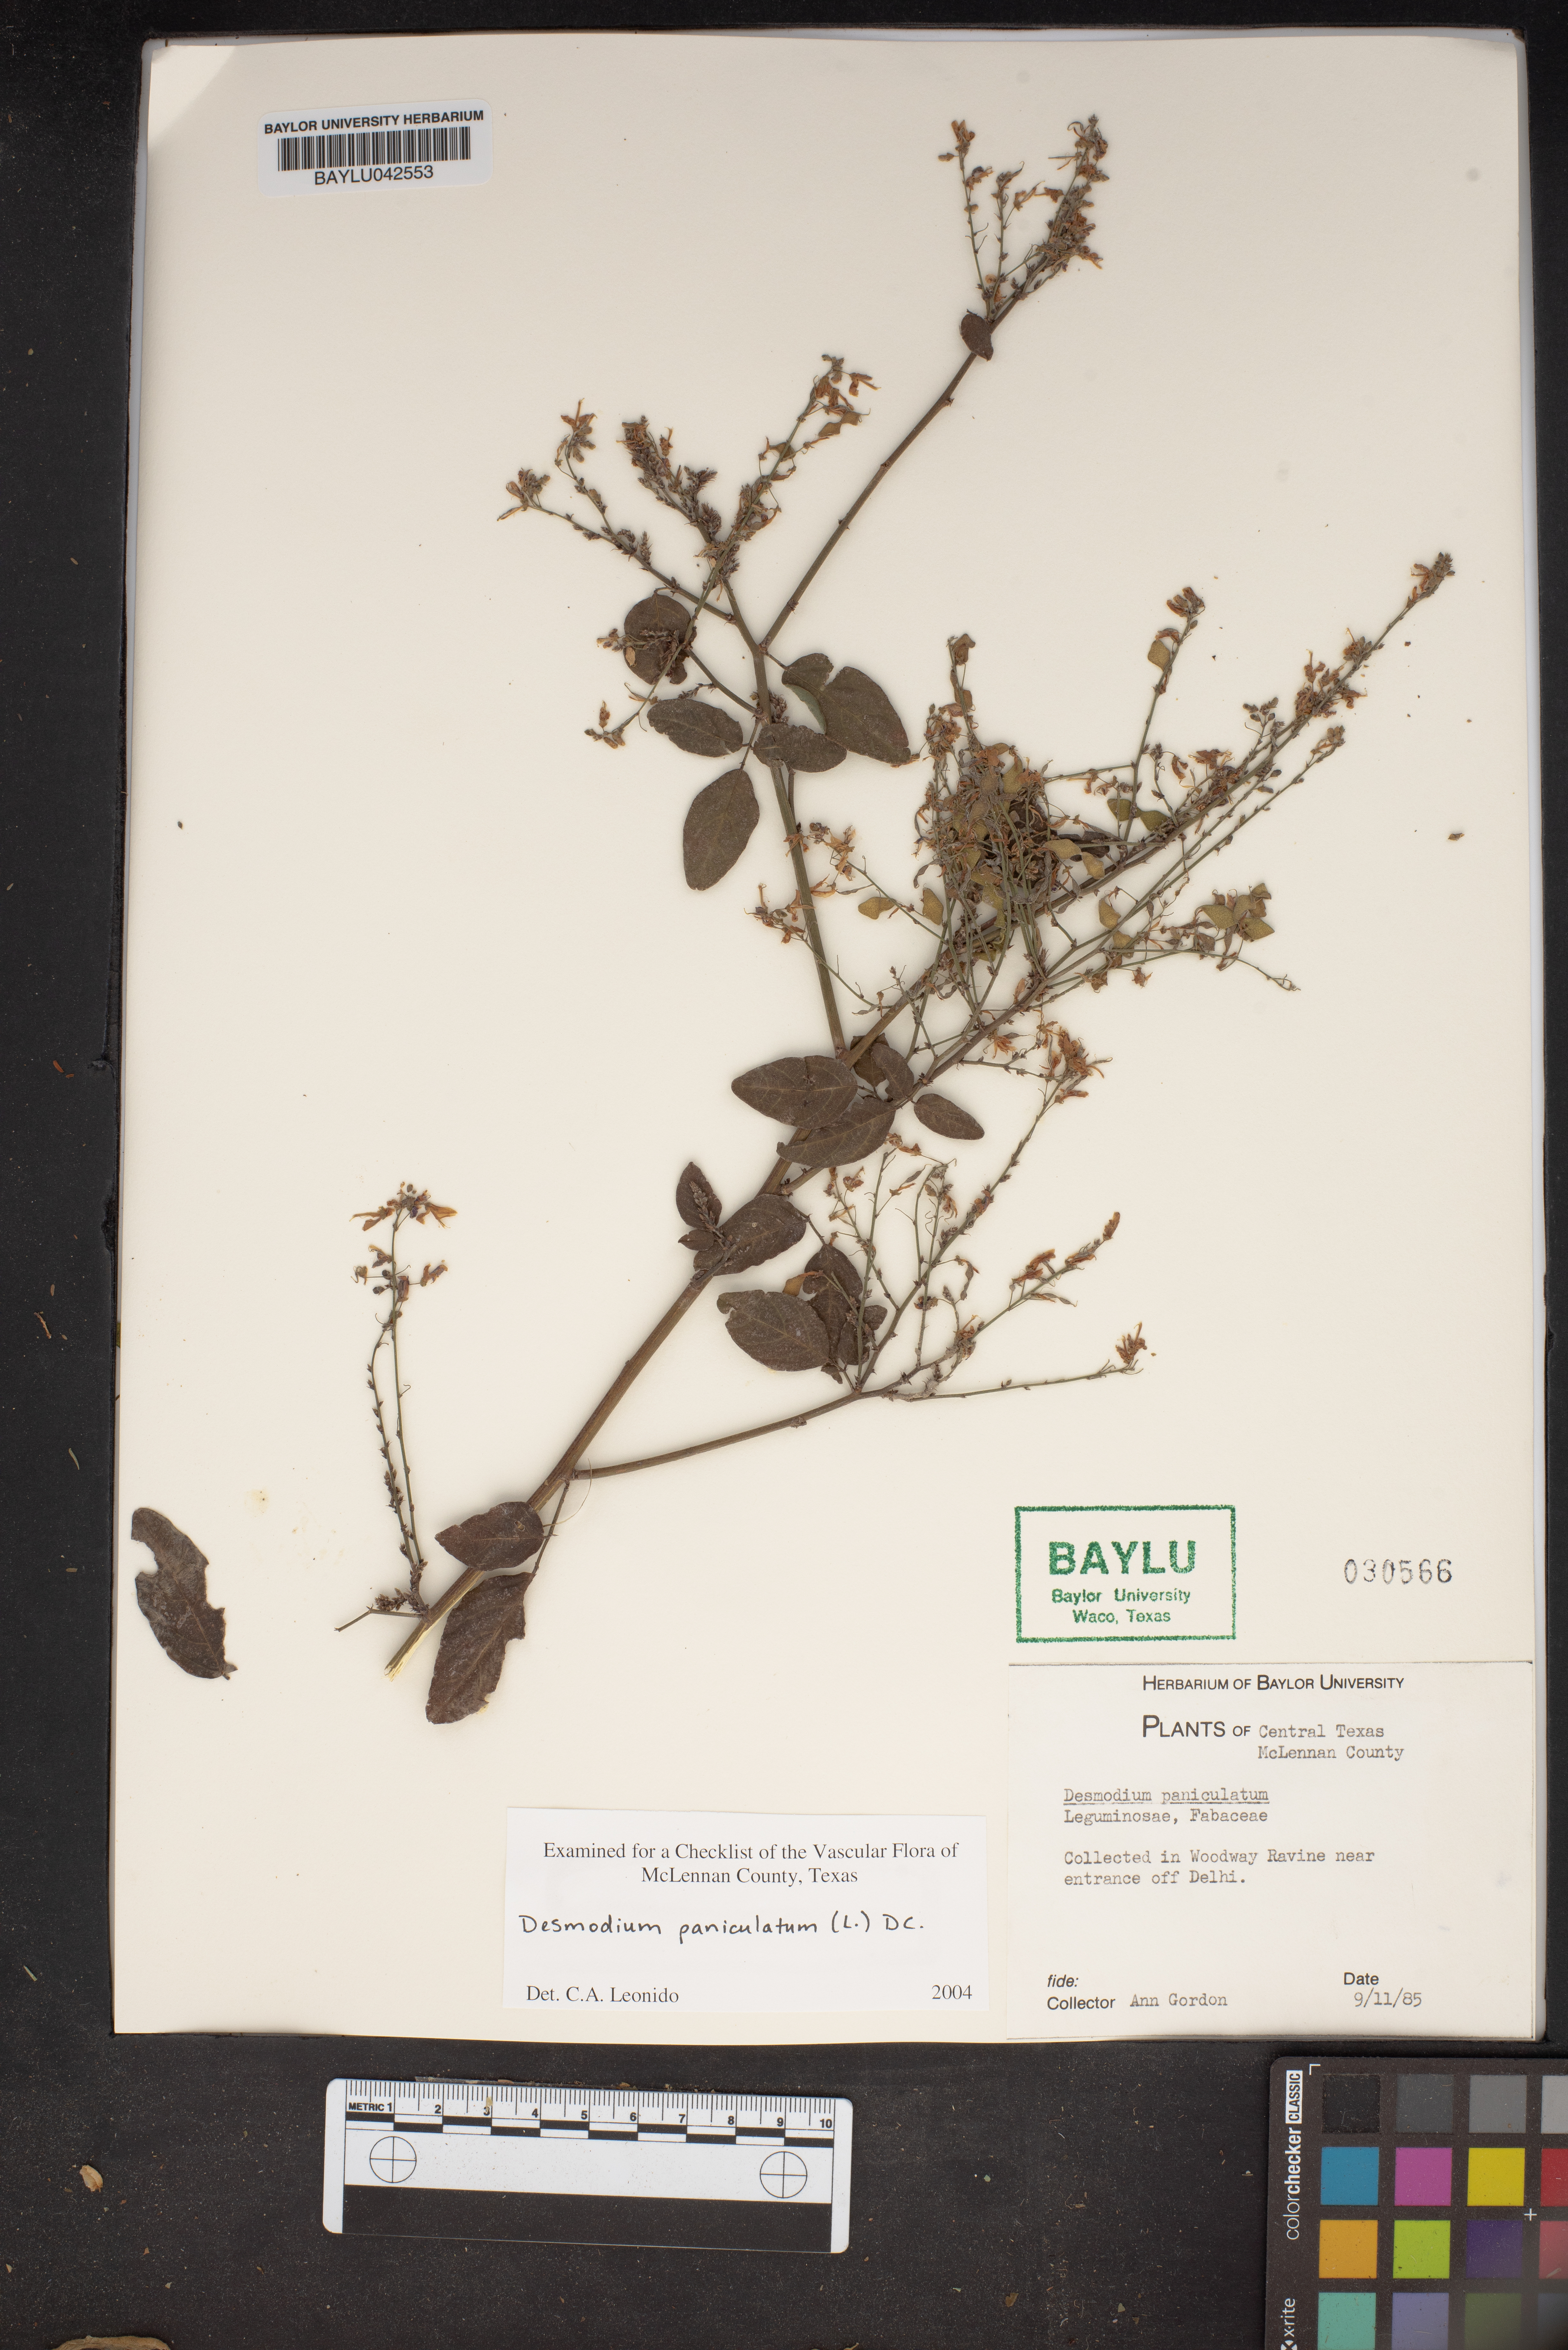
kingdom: Plantae
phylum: Tracheophyta
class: Magnoliopsida
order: Fabales
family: Fabaceae
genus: Desmodium
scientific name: Desmodium paniculatum
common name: Panicled tick-clover
